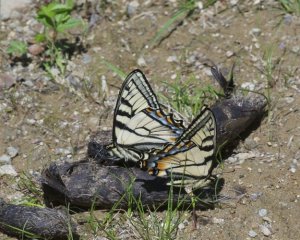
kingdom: Animalia
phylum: Arthropoda
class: Insecta
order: Lepidoptera
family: Papilionidae
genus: Pterourus
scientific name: Pterourus canadensis
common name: Canadian Tiger Swallowtail
